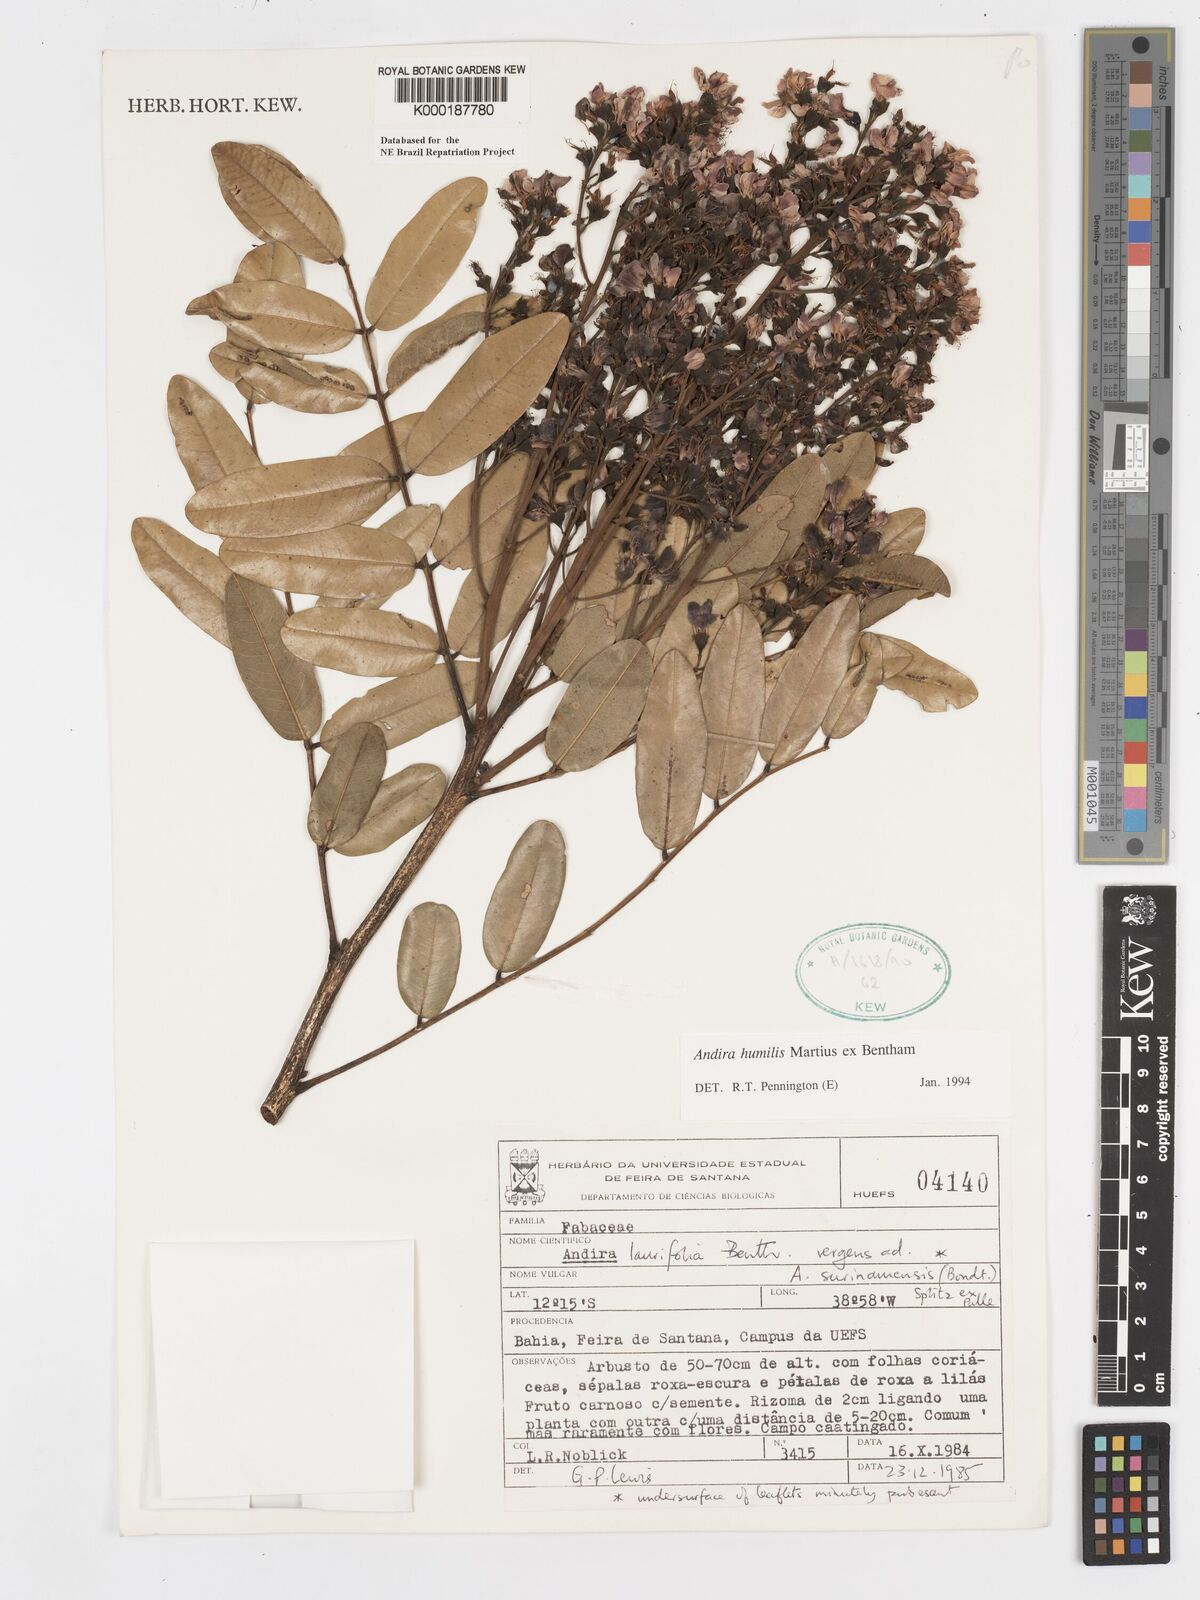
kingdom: Plantae
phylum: Tracheophyta
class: Magnoliopsida
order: Fabales
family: Fabaceae
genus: Andira
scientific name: Andira humilis
